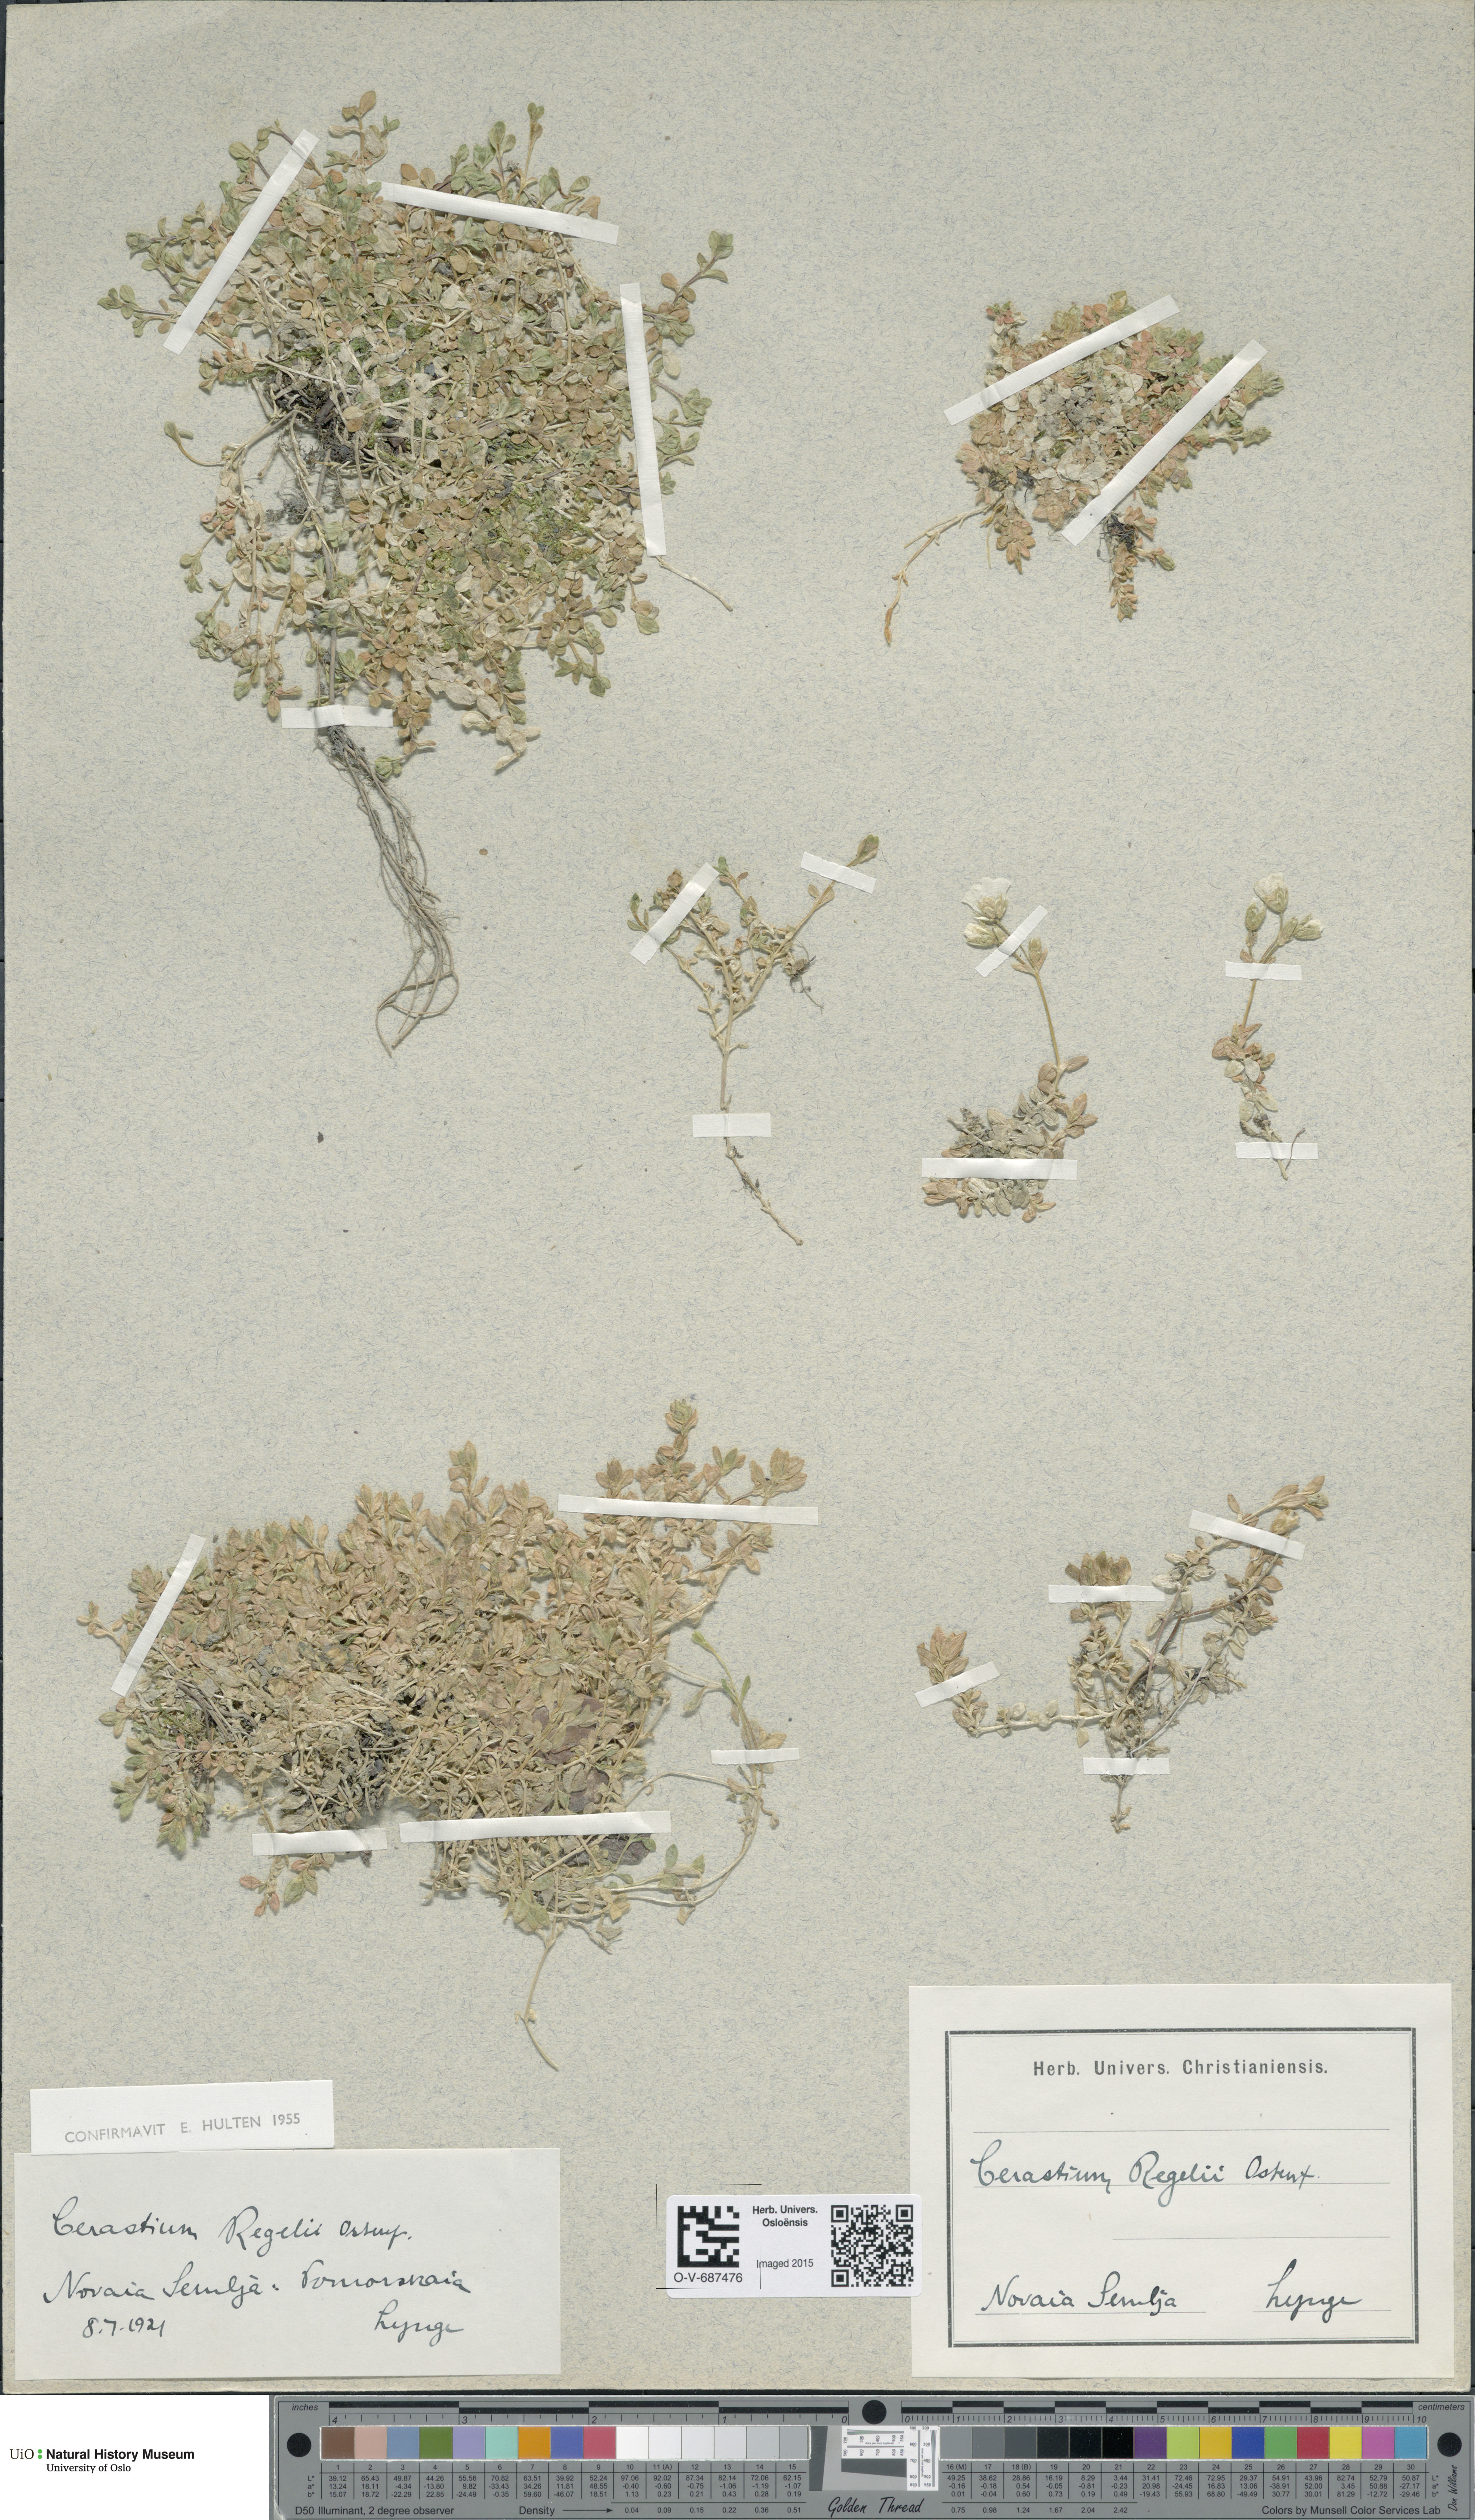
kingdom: Plantae
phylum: Tracheophyta
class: Magnoliopsida
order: Caryophyllales
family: Caryophyllaceae
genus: Cerastium
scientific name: Cerastium regelii
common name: Regel's chickweed
